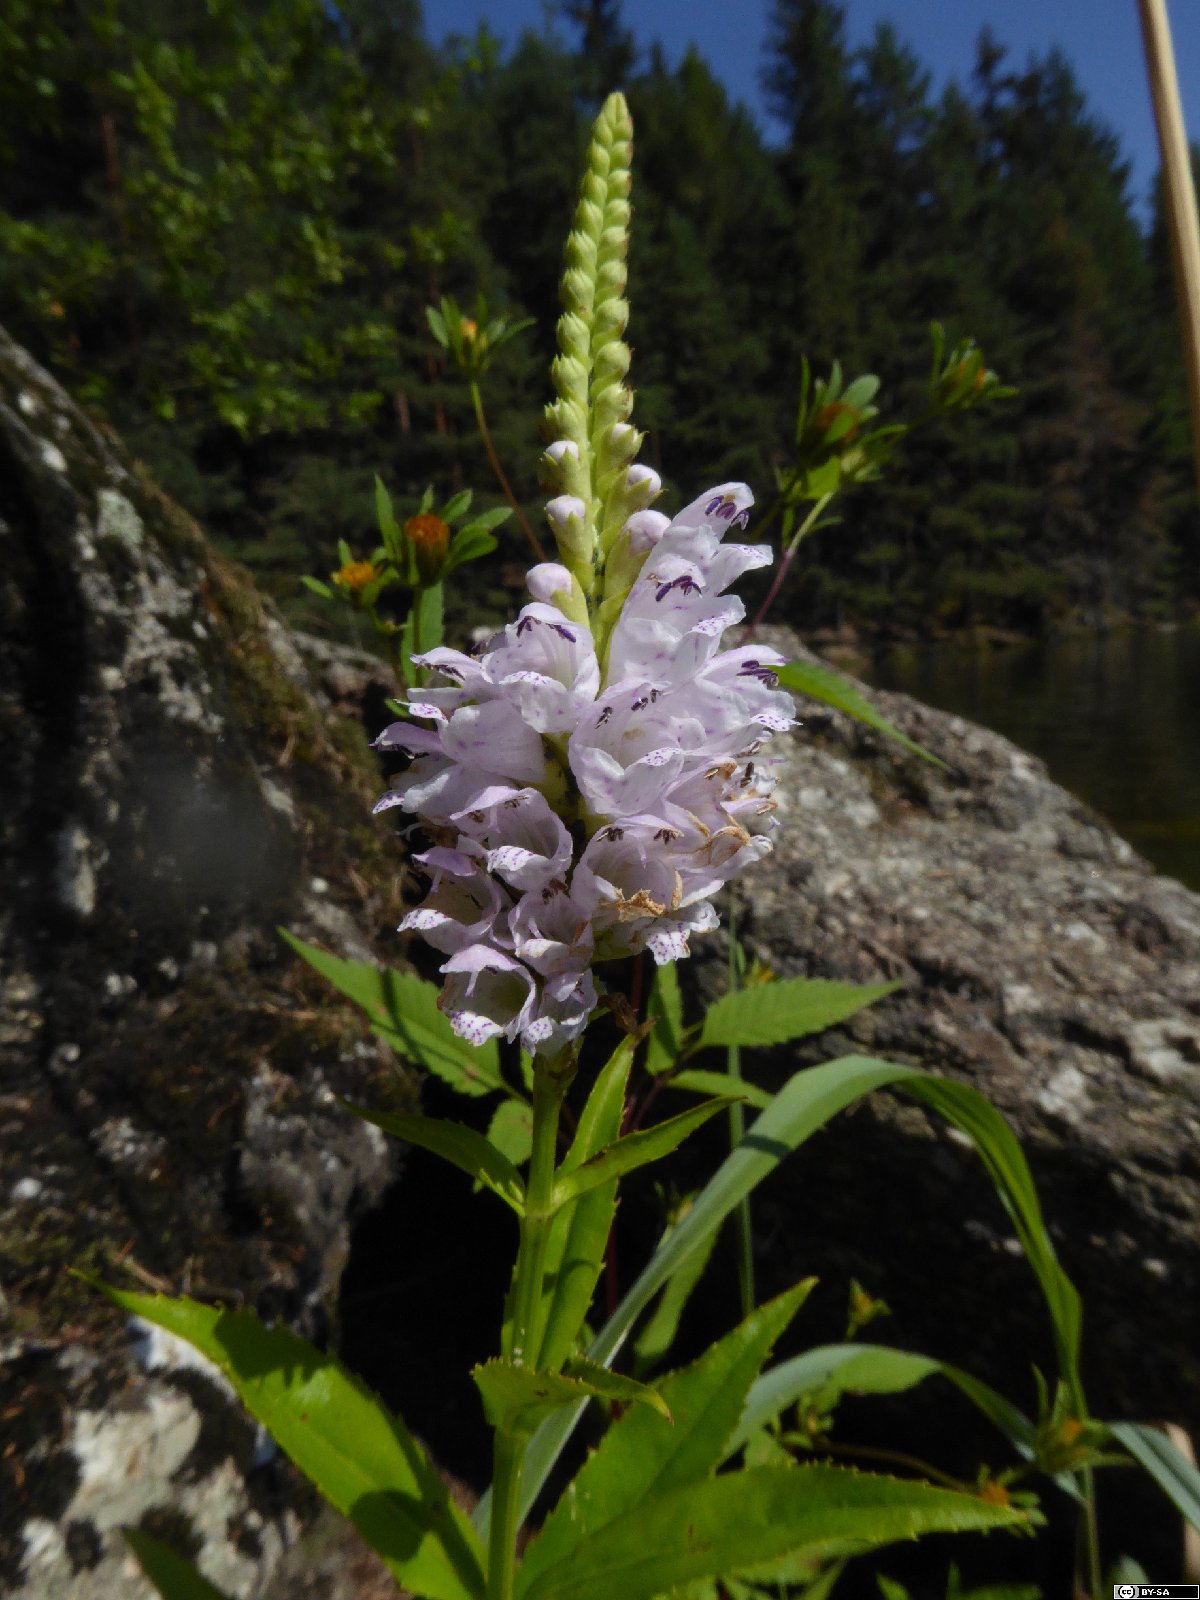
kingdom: Plantae
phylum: Tracheophyta
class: Magnoliopsida
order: Lamiales
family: Lamiaceae
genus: Physostegia
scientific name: Physostegia virginiana
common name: Obedient-plant
